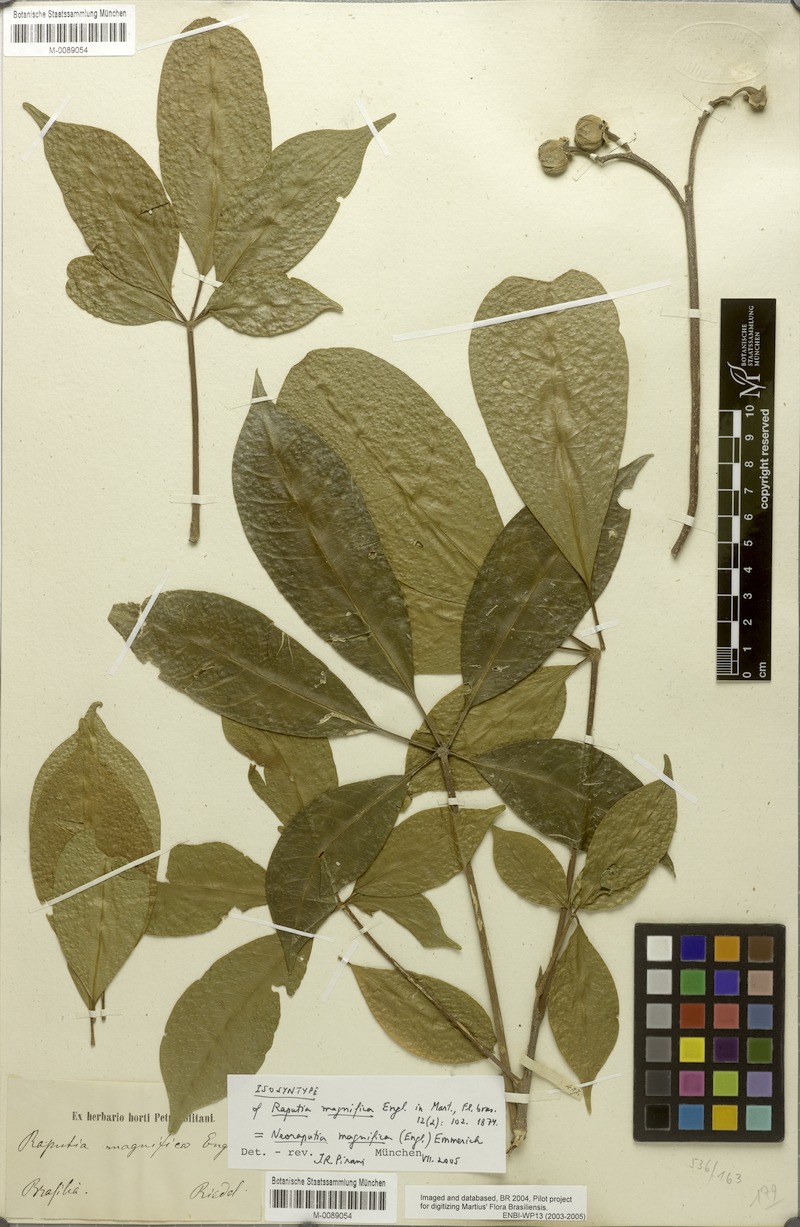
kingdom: Plantae
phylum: Tracheophyta
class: Magnoliopsida
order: Sapindales
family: Rutaceae
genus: Neoraputia
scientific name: Neoraputia magnifica
